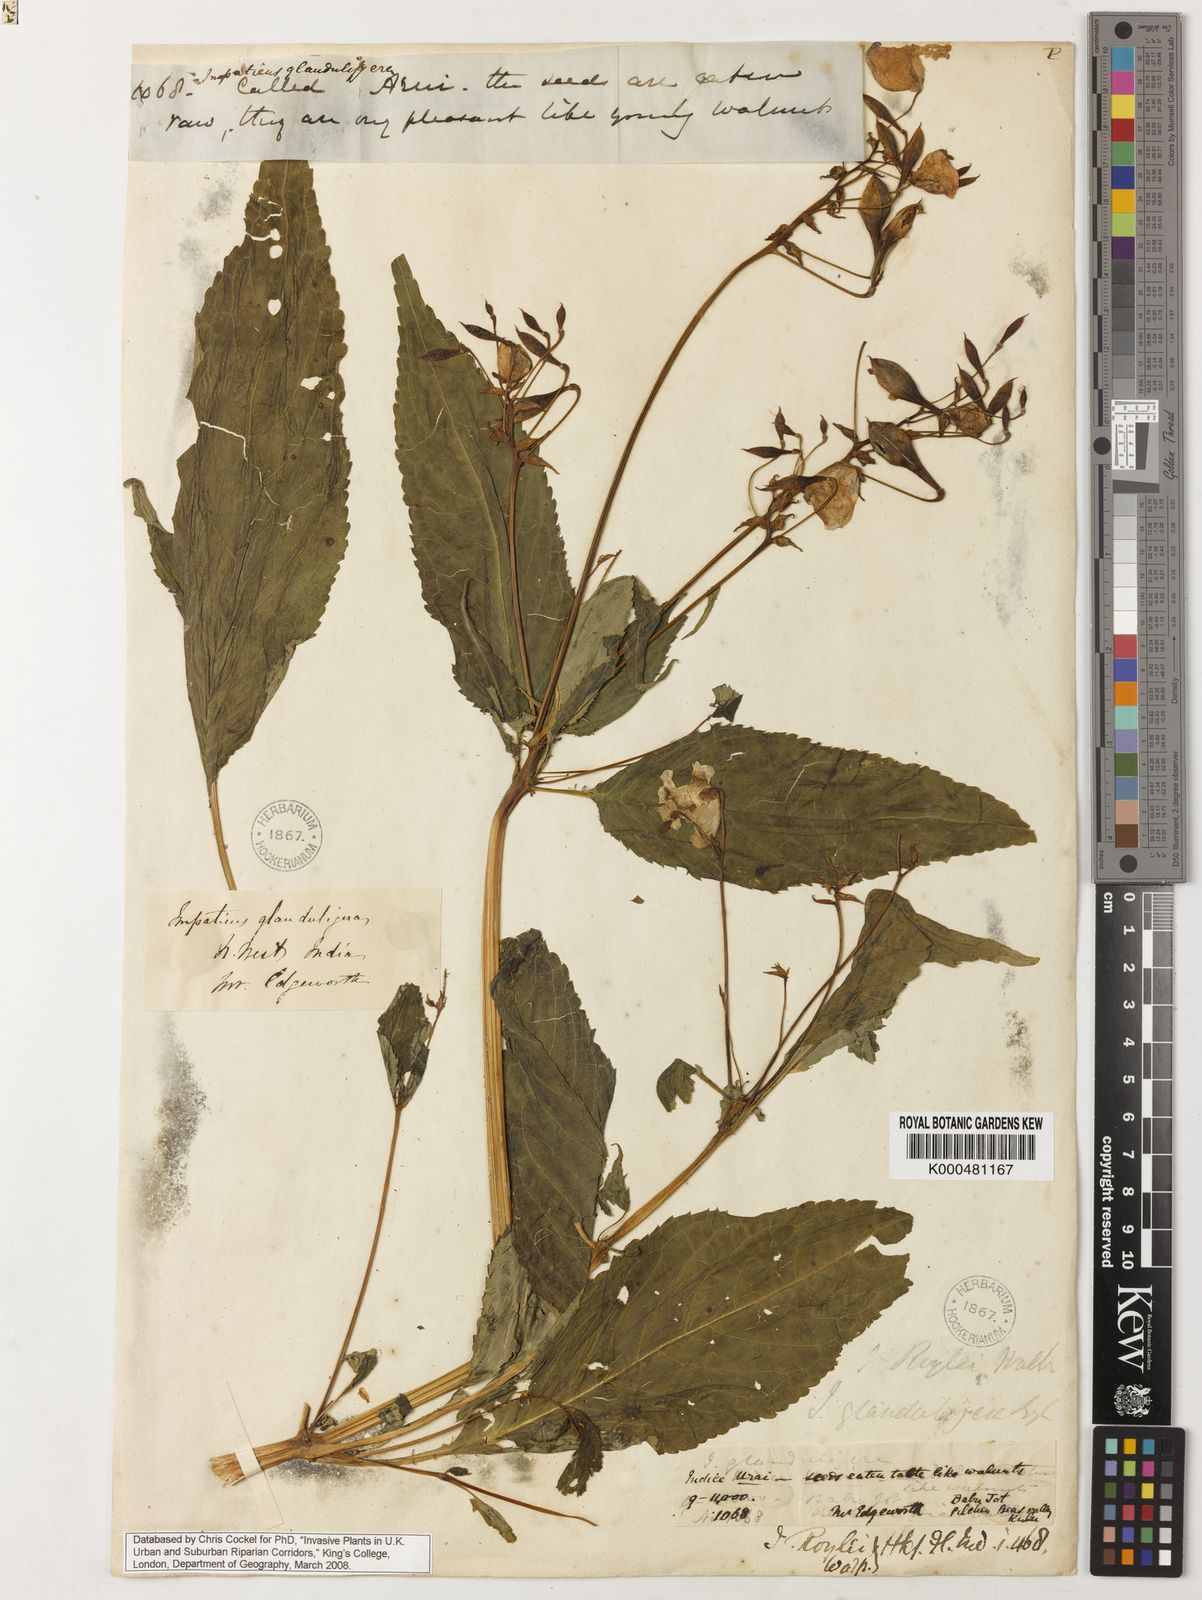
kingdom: Plantae
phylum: Tracheophyta
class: Magnoliopsida
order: Ericales
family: Balsaminaceae
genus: Impatiens
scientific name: Impatiens glandulifera
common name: Himalayan balsam
